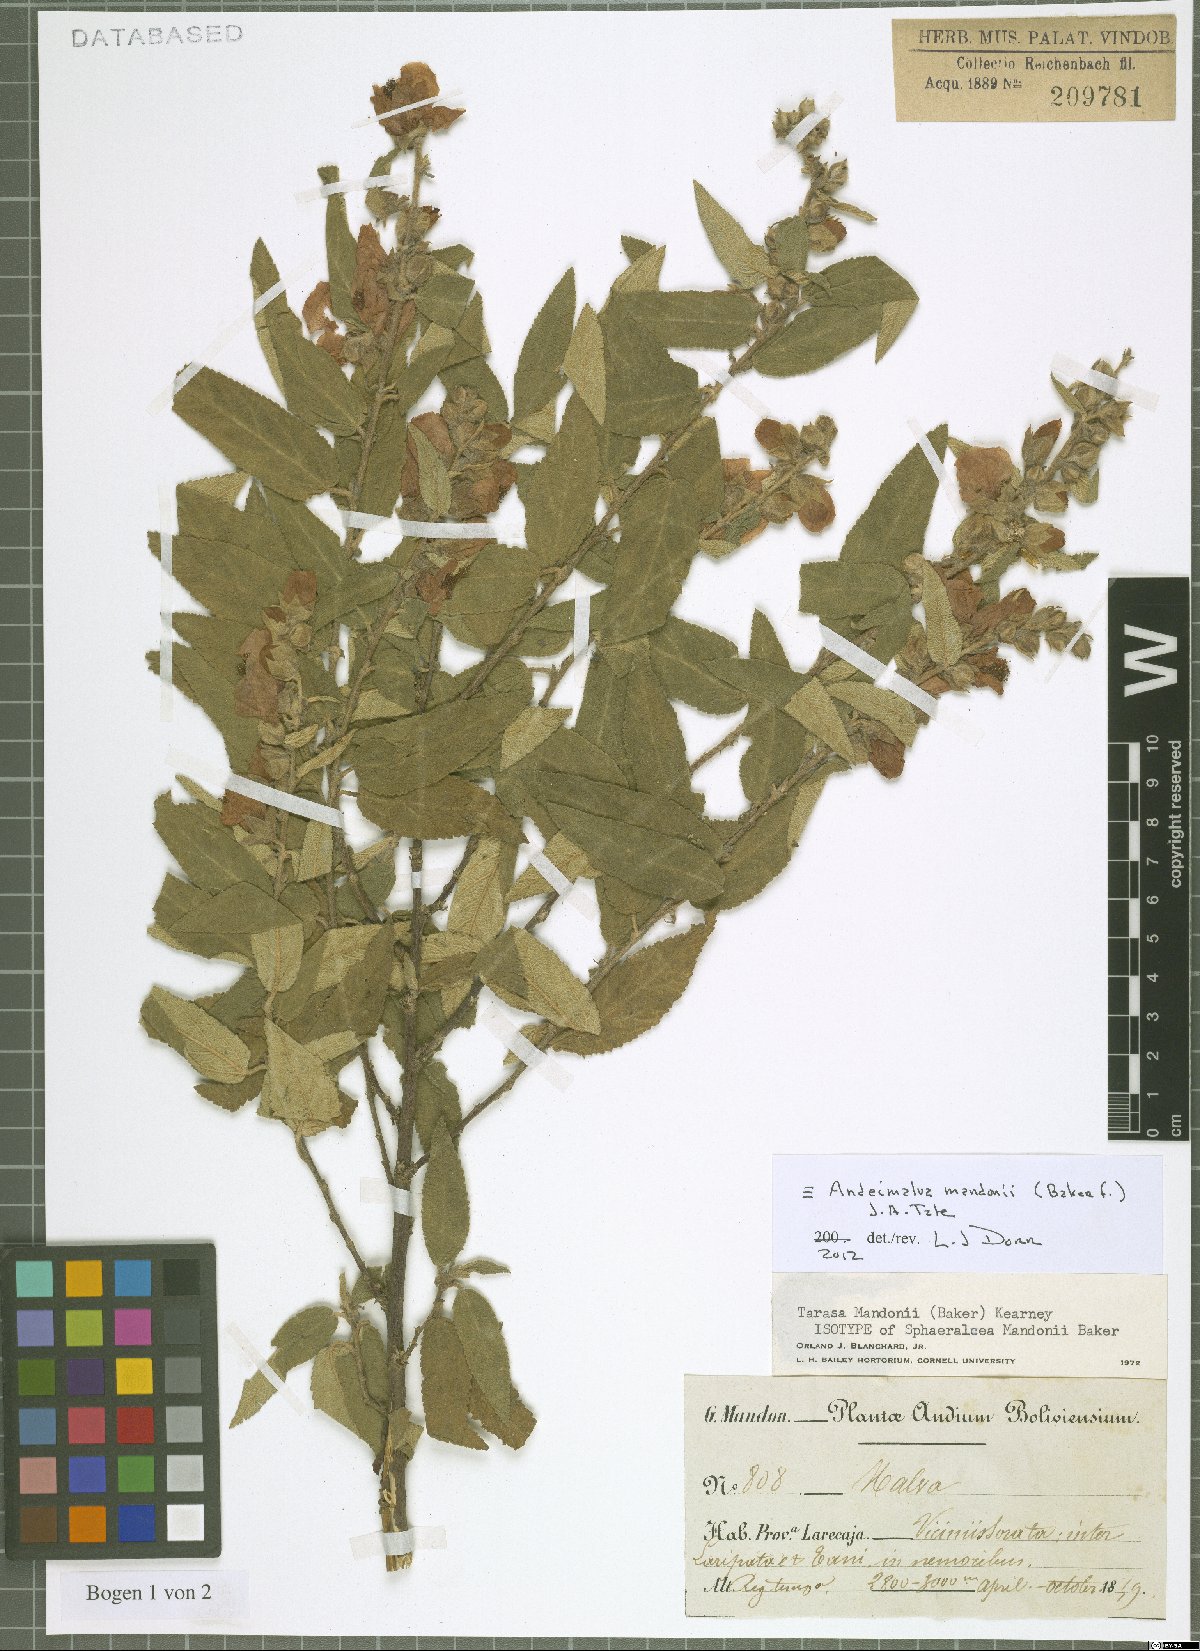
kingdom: Plantae
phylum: Tracheophyta
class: Magnoliopsida
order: Malvales
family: Malvaceae
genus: Andeimalva
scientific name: Andeimalva mandonii
